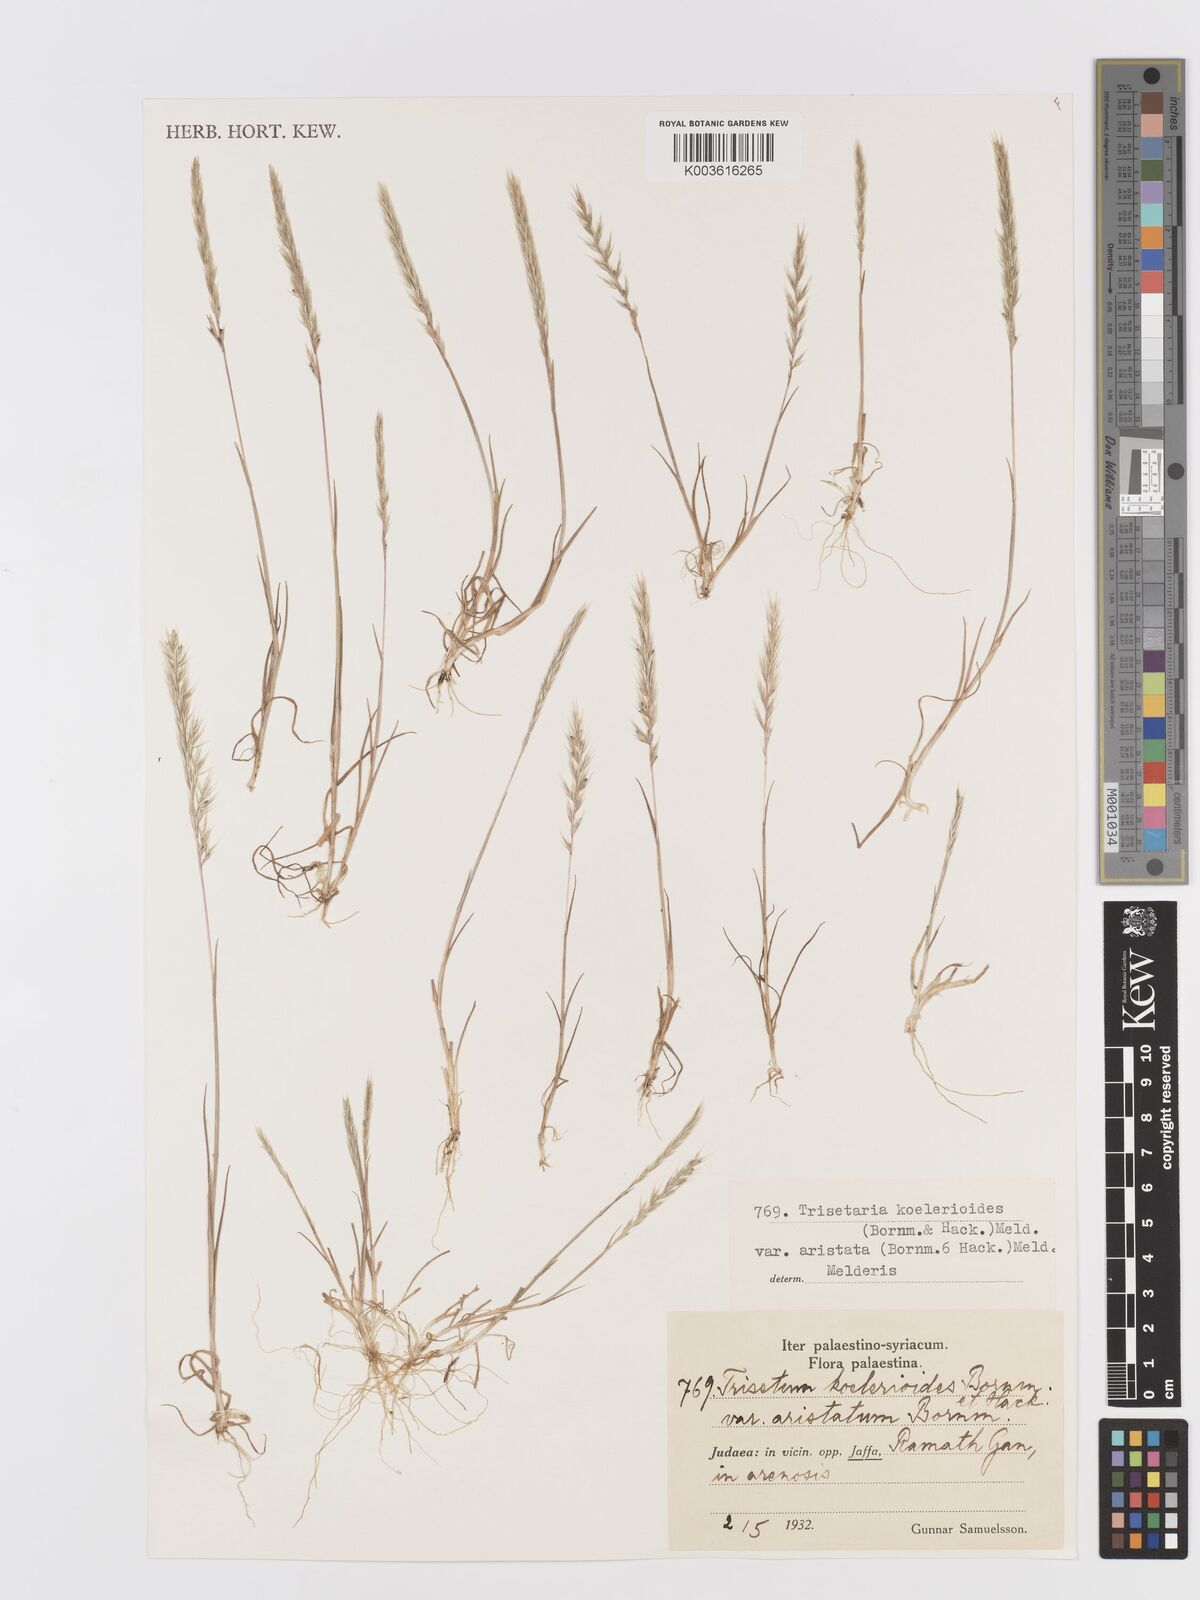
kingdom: Plantae
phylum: Tracheophyta
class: Liliopsida
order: Poales
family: Poaceae
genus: Trisetaria
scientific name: Trisetaria
